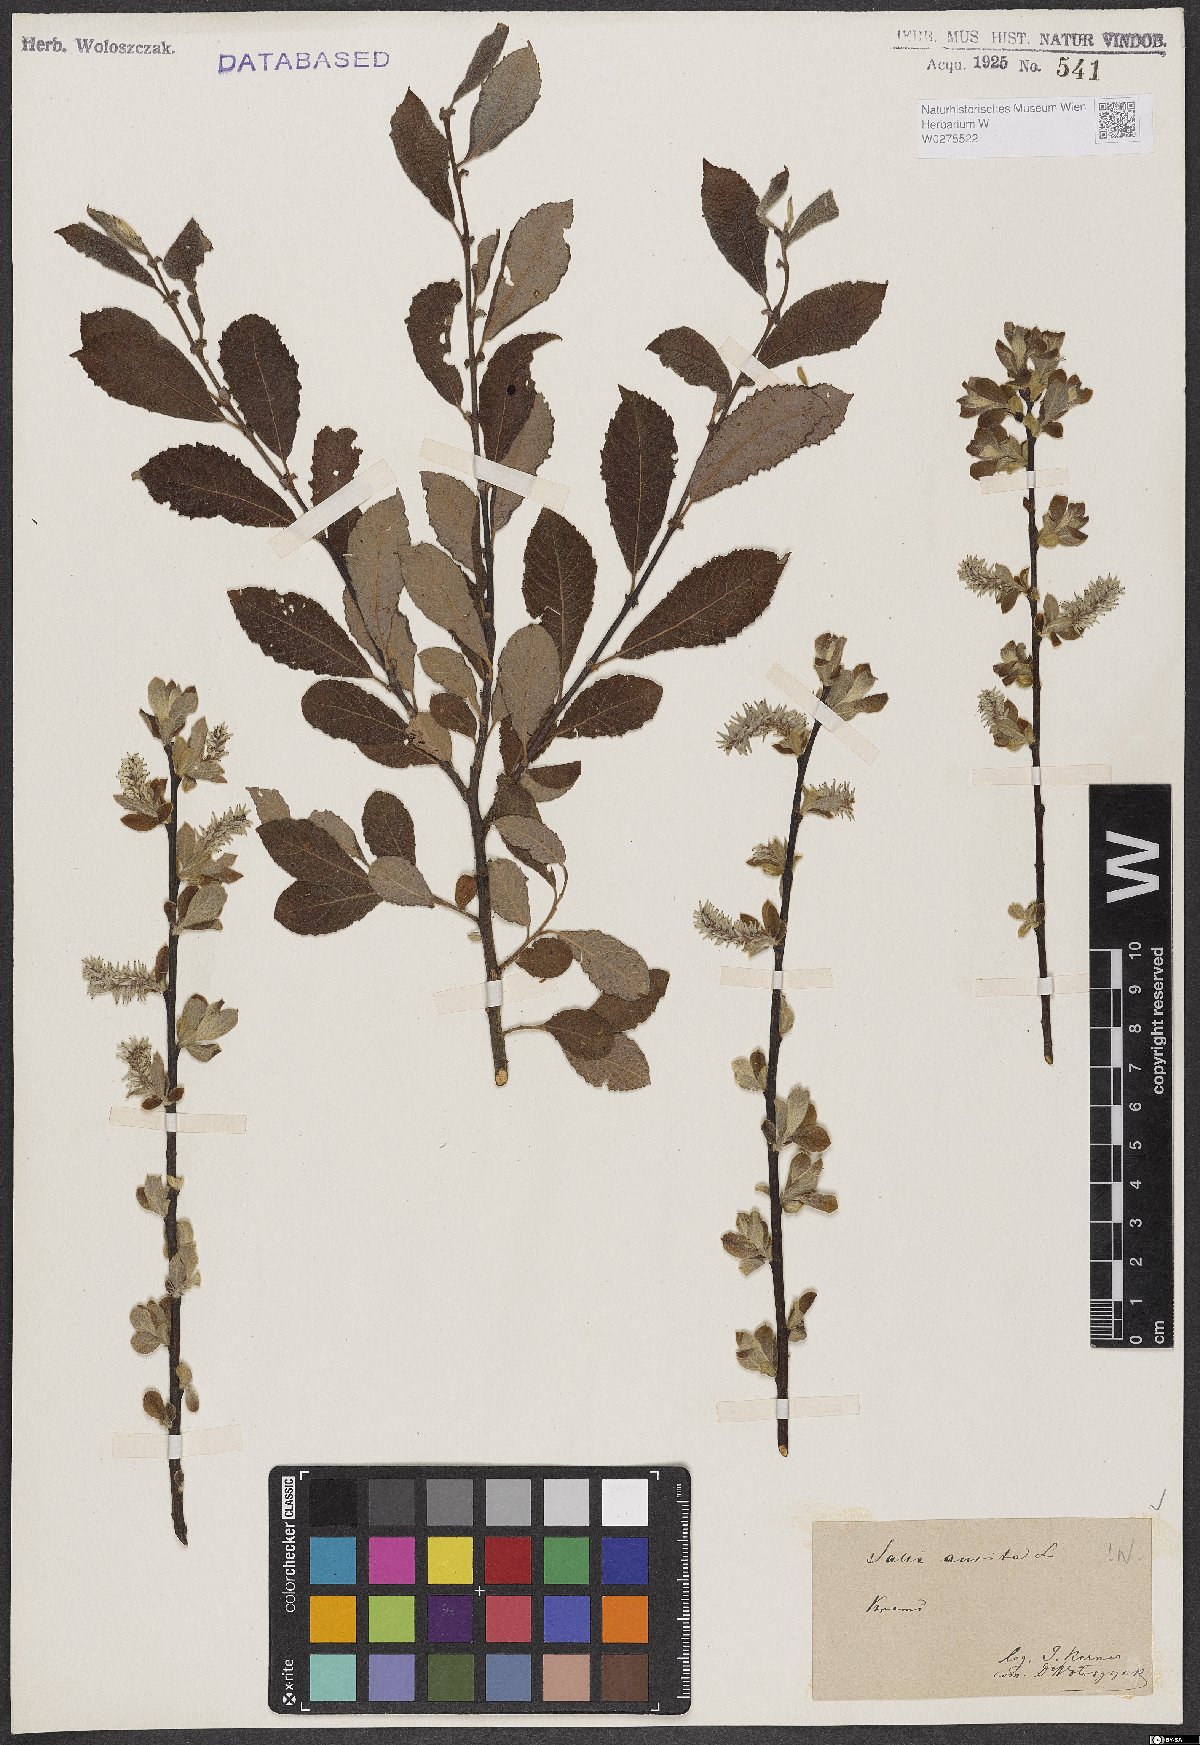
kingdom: Plantae
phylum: Tracheophyta
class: Magnoliopsida
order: Malpighiales
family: Salicaceae
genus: Salix
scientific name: Salix aurita
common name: Eared willow
